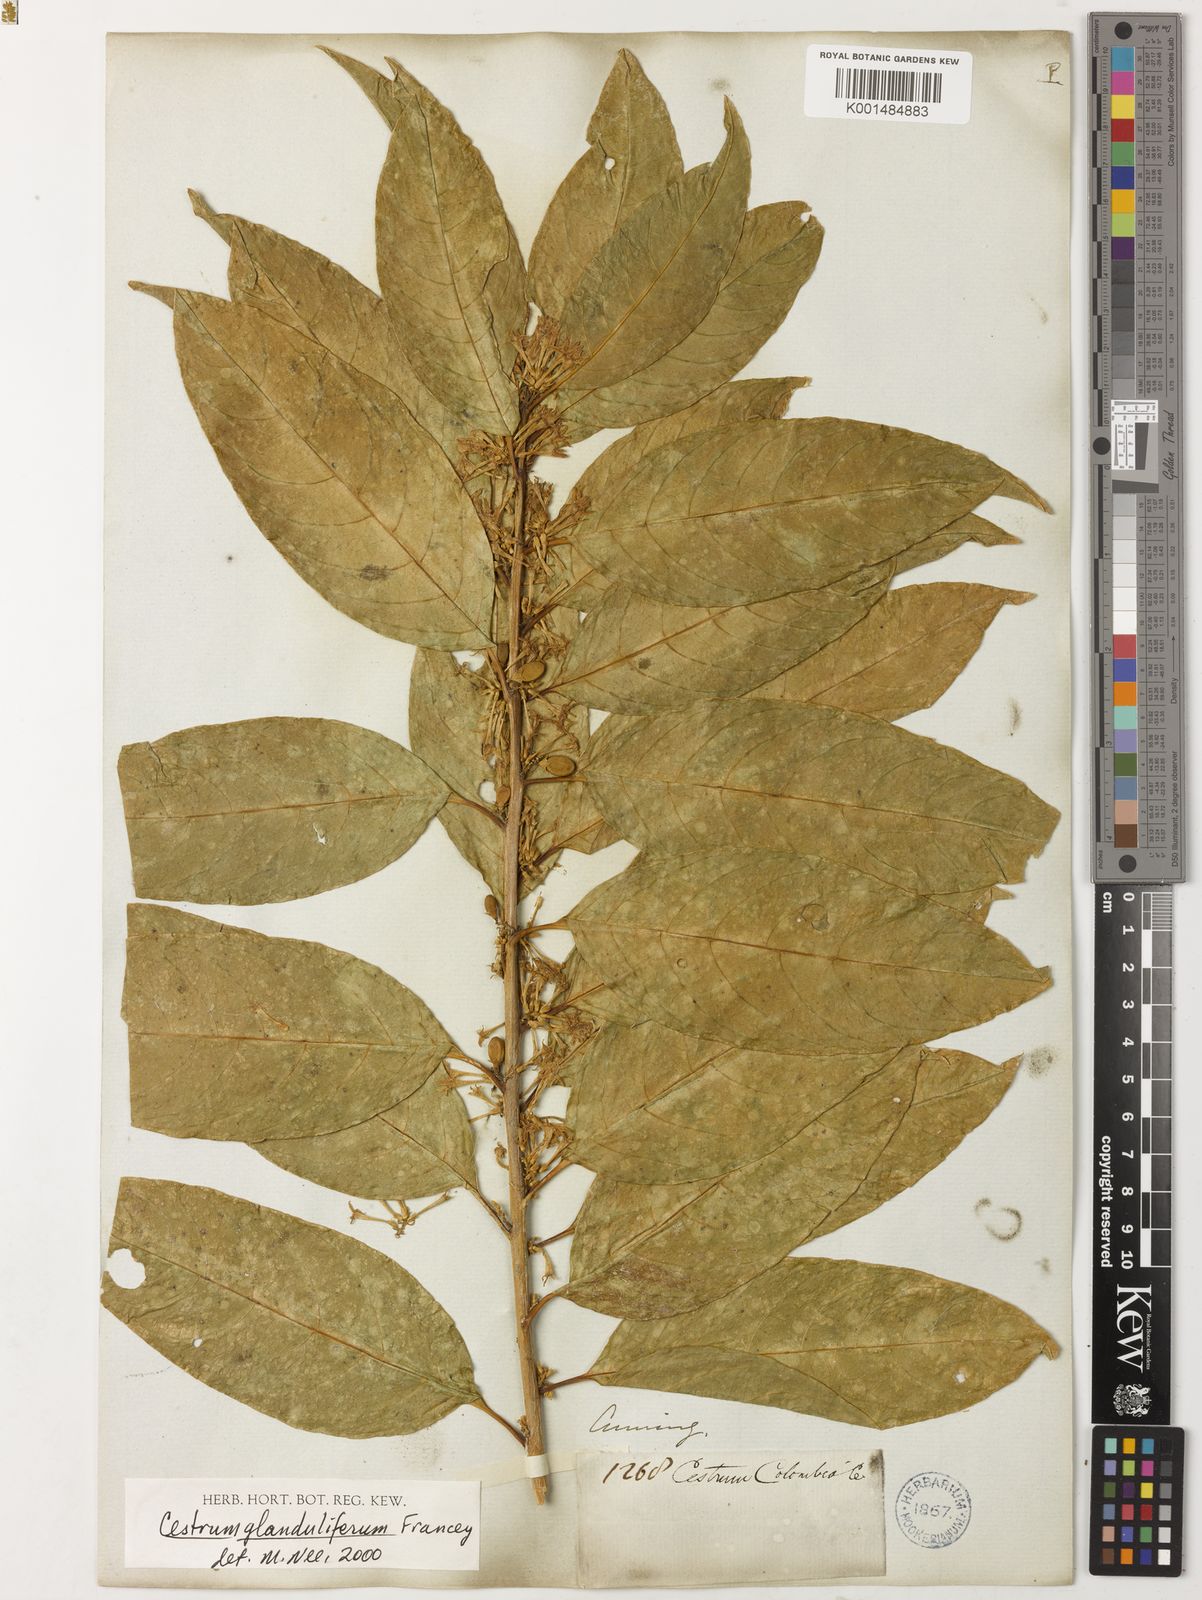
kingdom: Plantae
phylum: Tracheophyta
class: Magnoliopsida
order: Solanales
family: Solanaceae
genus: Cestrum
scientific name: Cestrum glanduliferum
